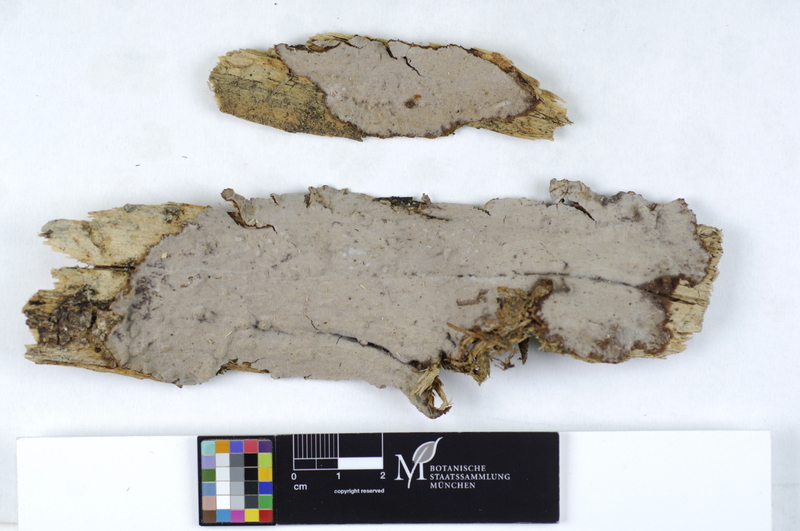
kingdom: Fungi
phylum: Basidiomycota
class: Agaricomycetes
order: Gloeophyllales
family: Gloeophyllaceae
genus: Veluticeps
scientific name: Veluticeps abietina
